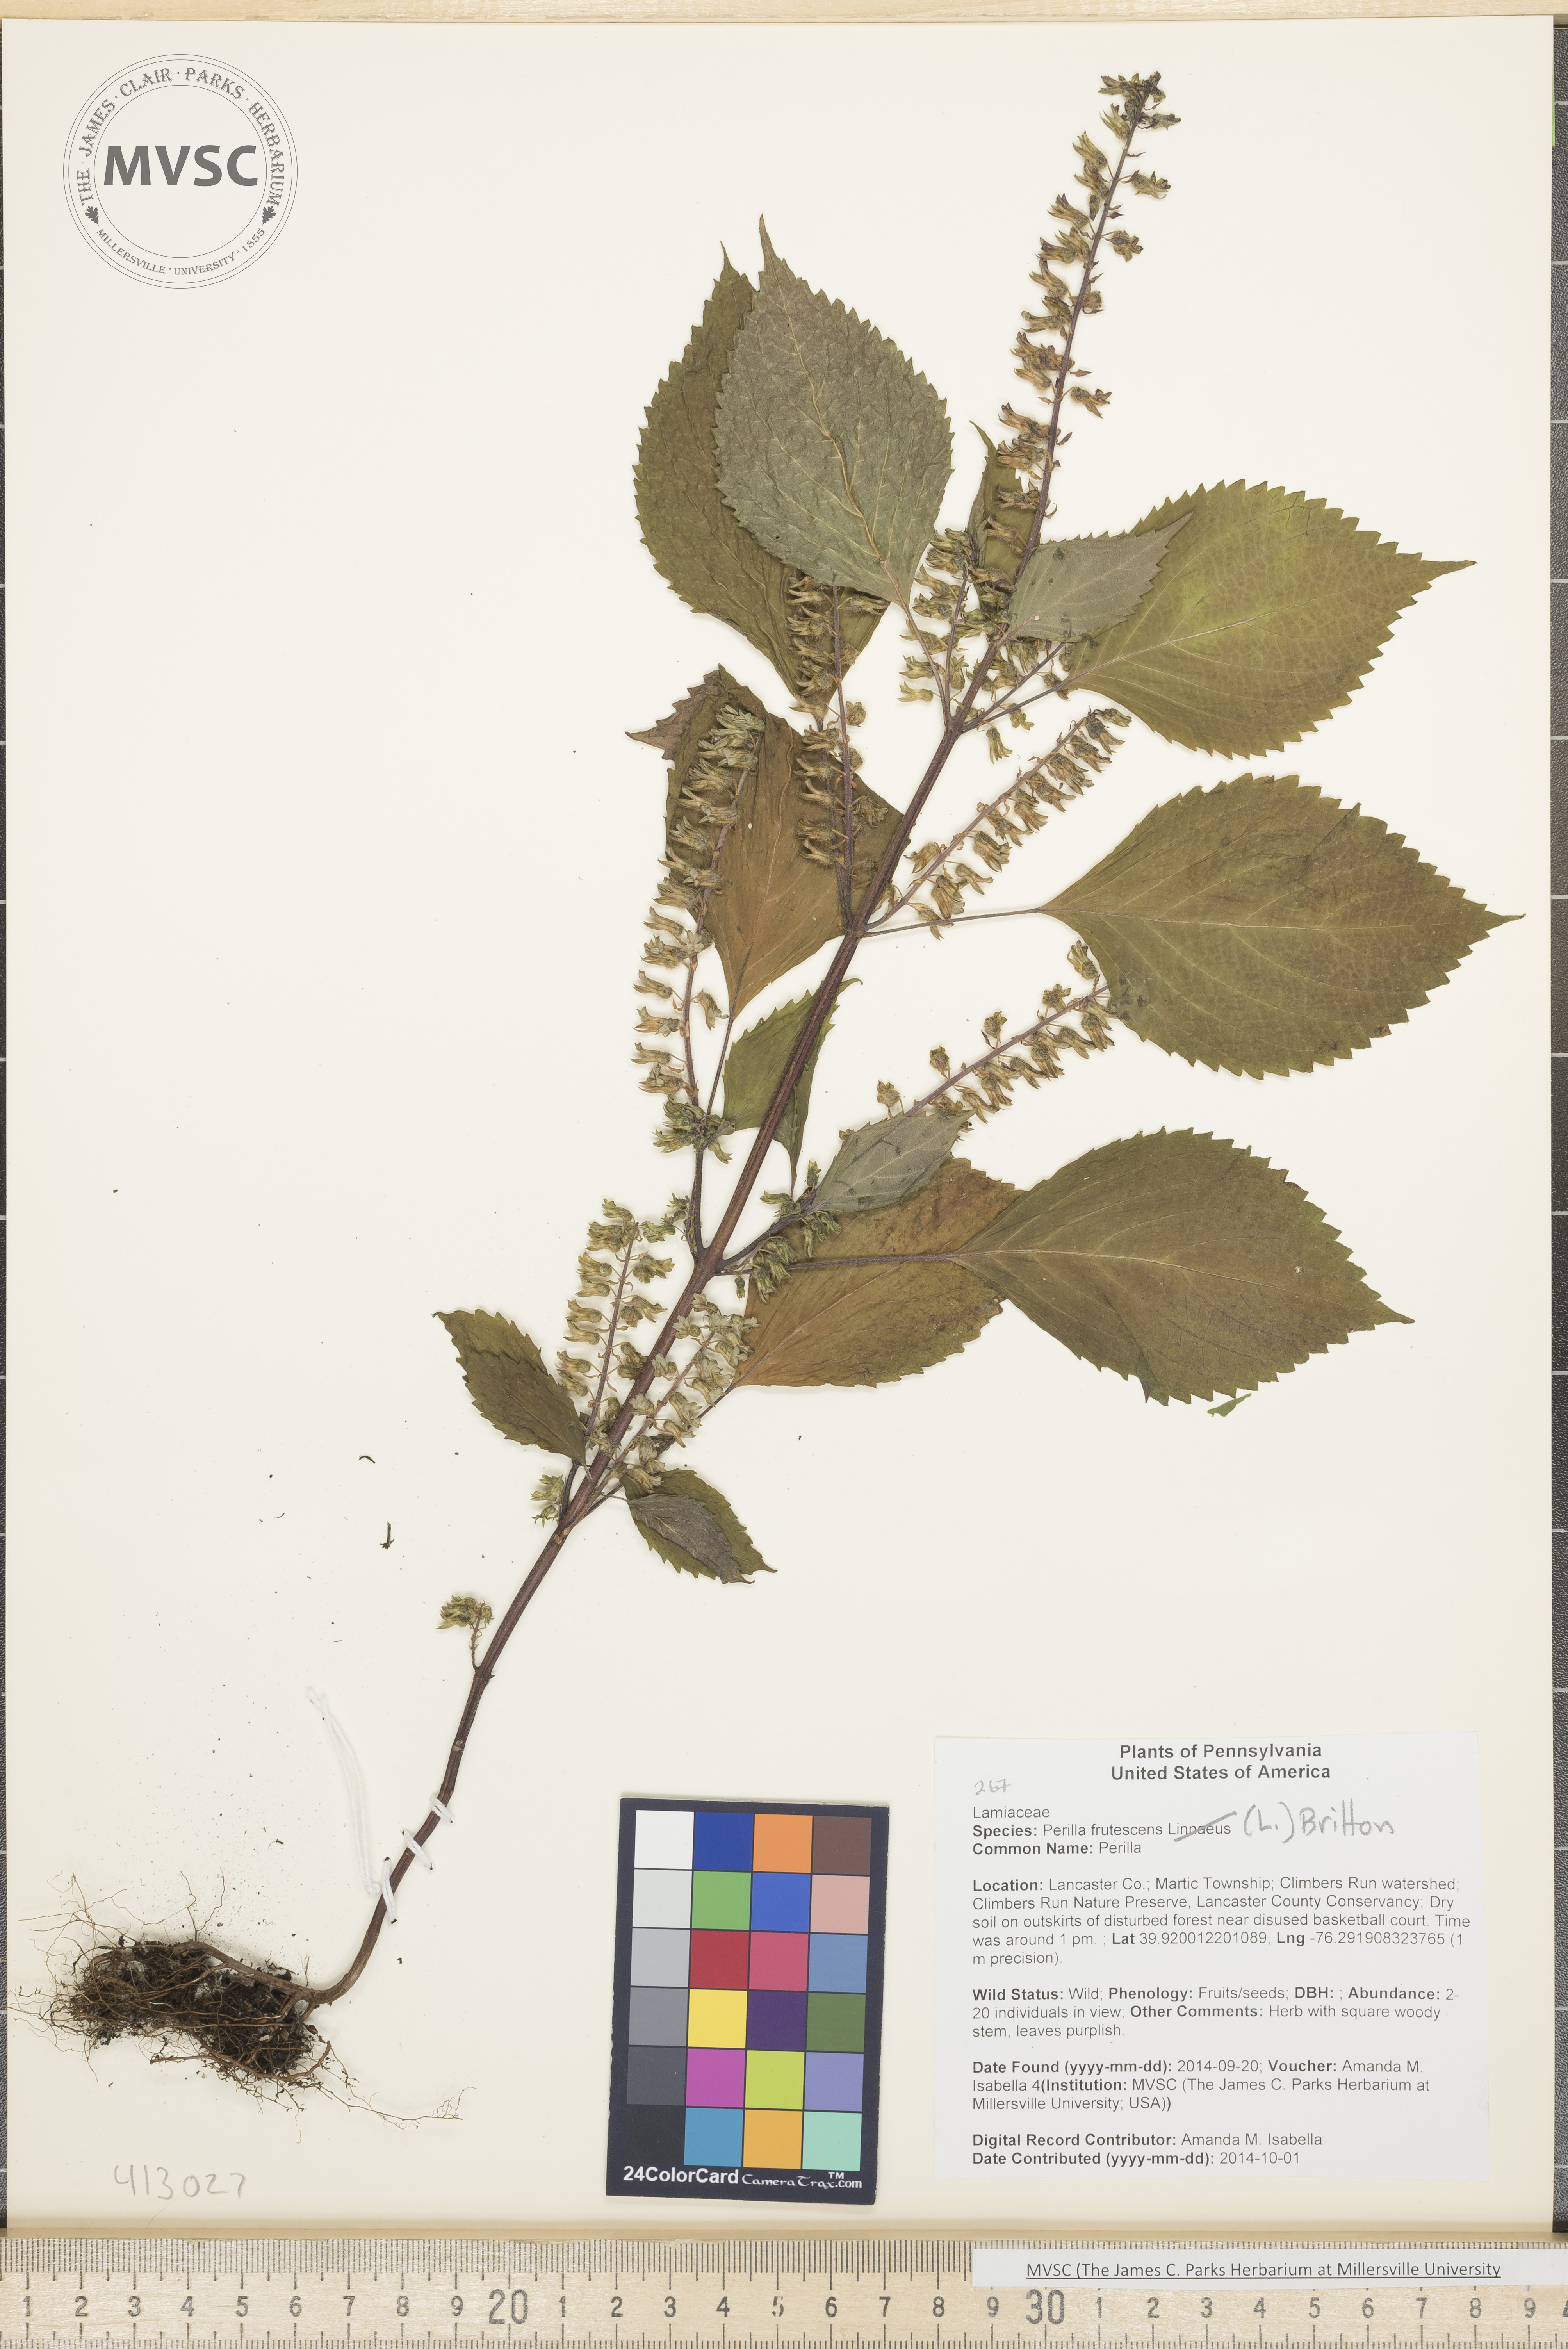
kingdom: Plantae
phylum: Tracheophyta
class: Magnoliopsida
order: Lamiales
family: Lamiaceae
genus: Perilla
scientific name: Perilla frutescens
